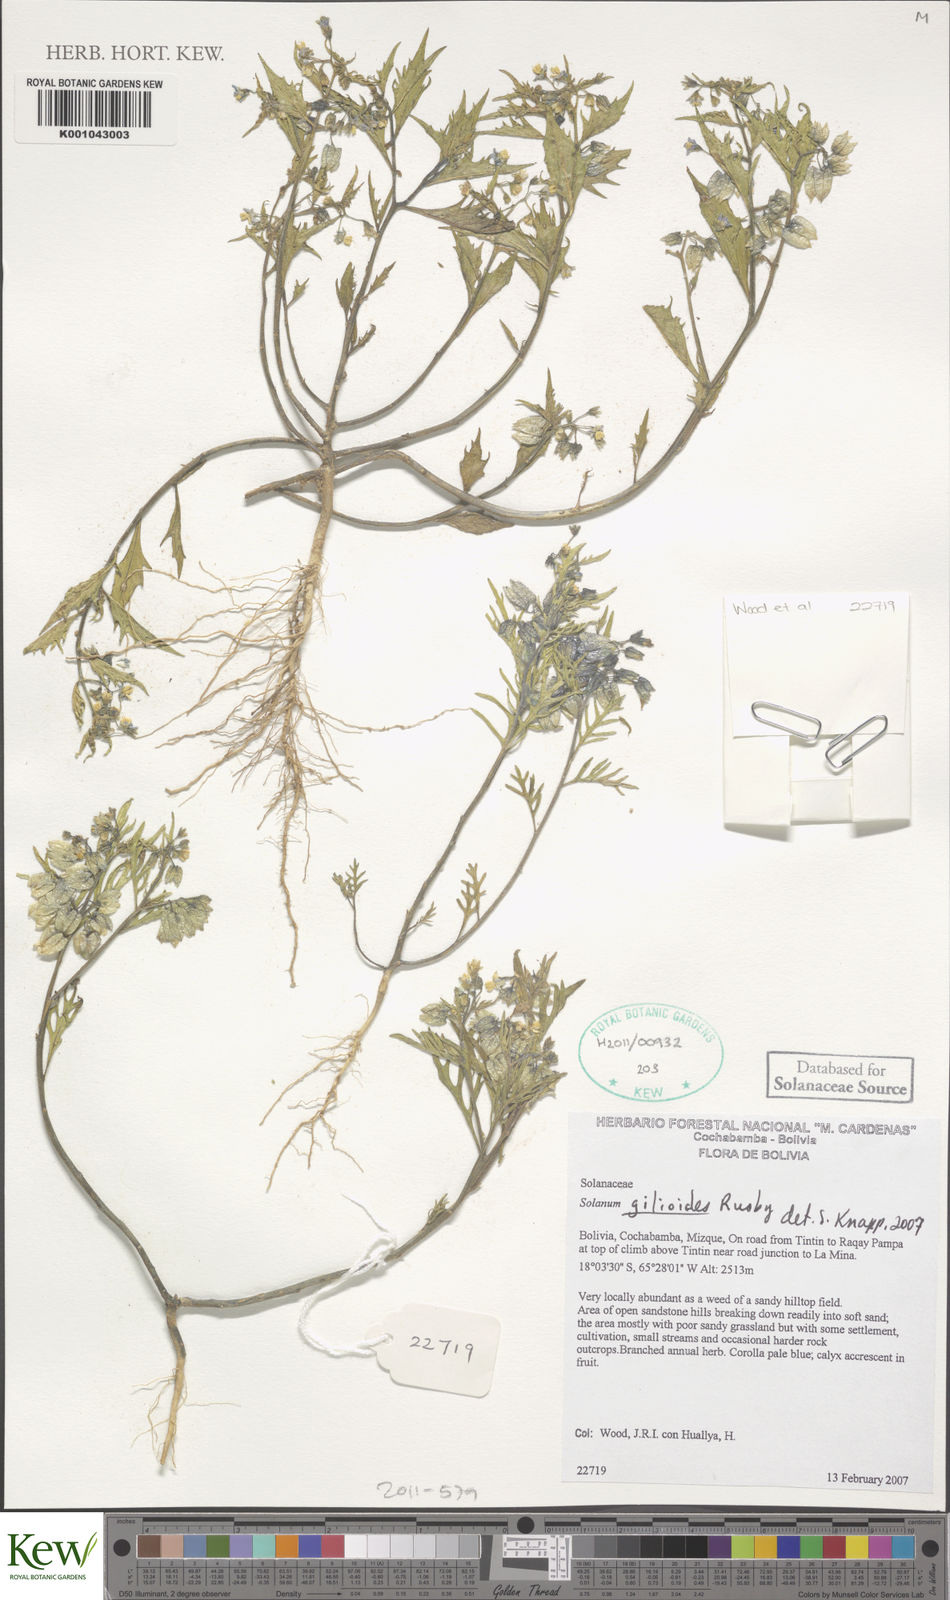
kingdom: Plantae
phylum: Tracheophyta
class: Magnoliopsida
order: Solanales
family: Solanaceae
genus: Solanum
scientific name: Solanum gilioides
